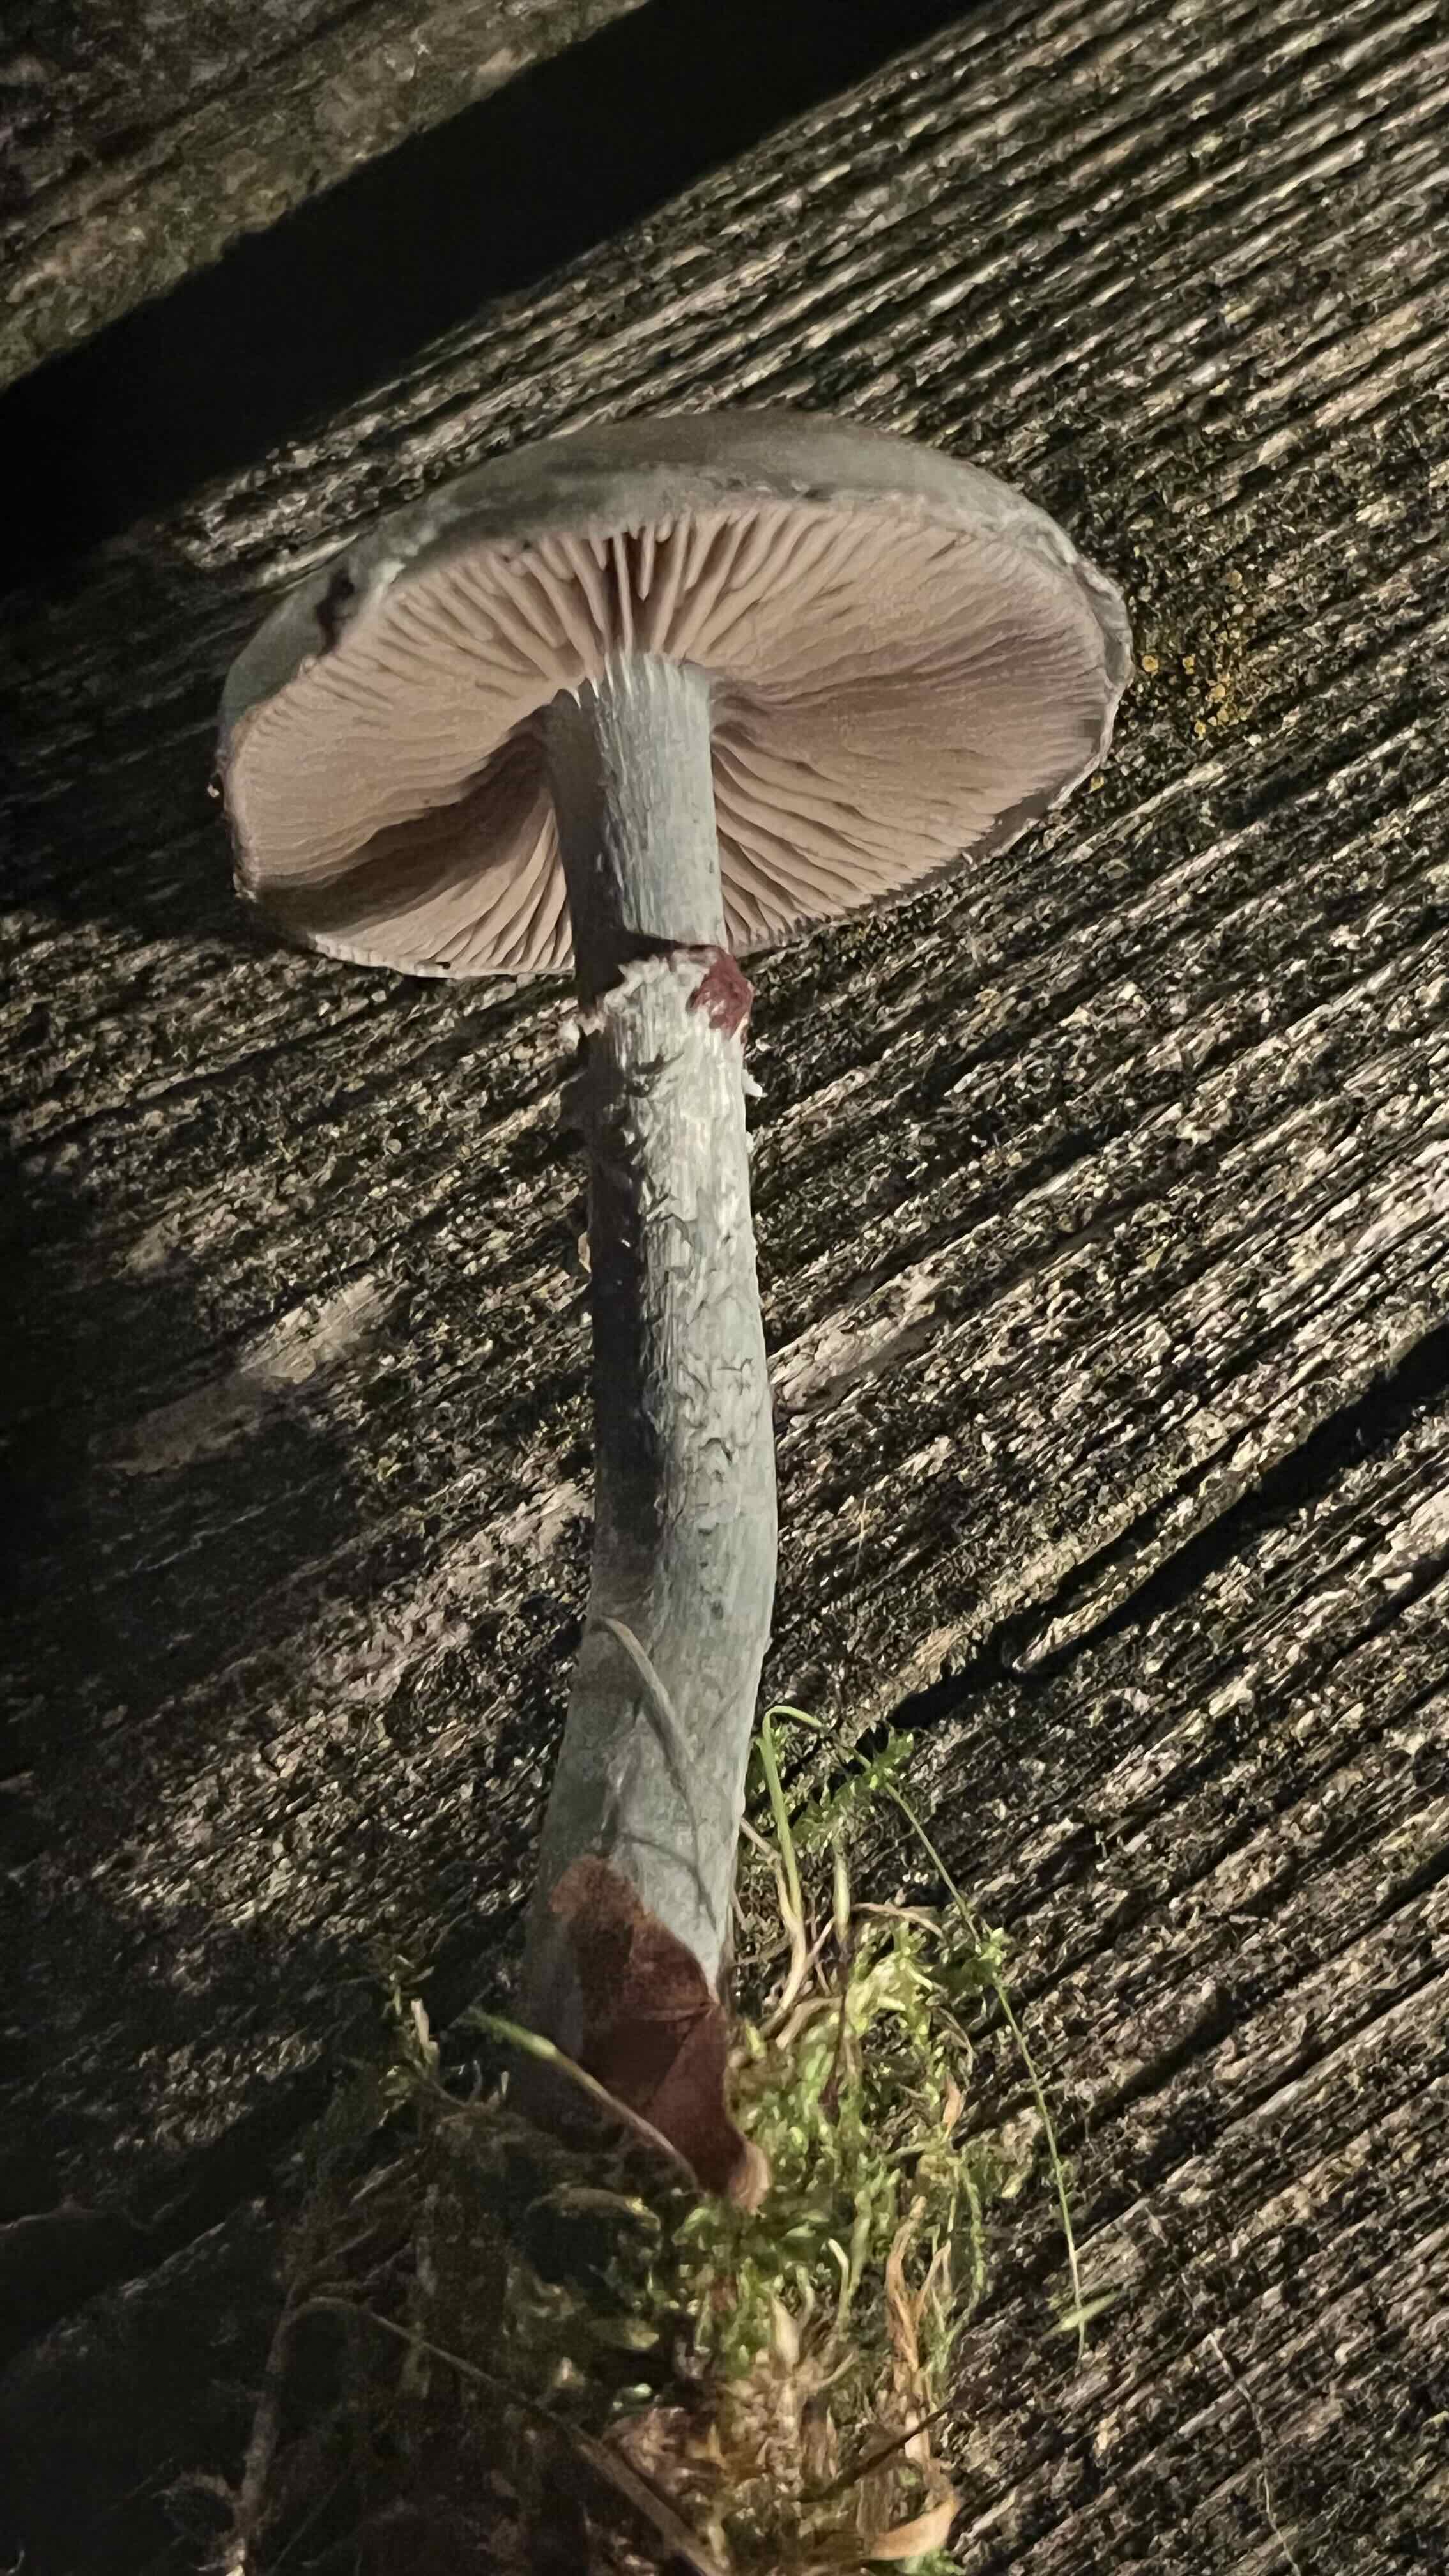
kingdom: Fungi
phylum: Basidiomycota
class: Agaricomycetes
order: Agaricales
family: Strophariaceae
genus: Stropharia
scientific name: Stropharia cyanea
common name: blågrøn bredblad
